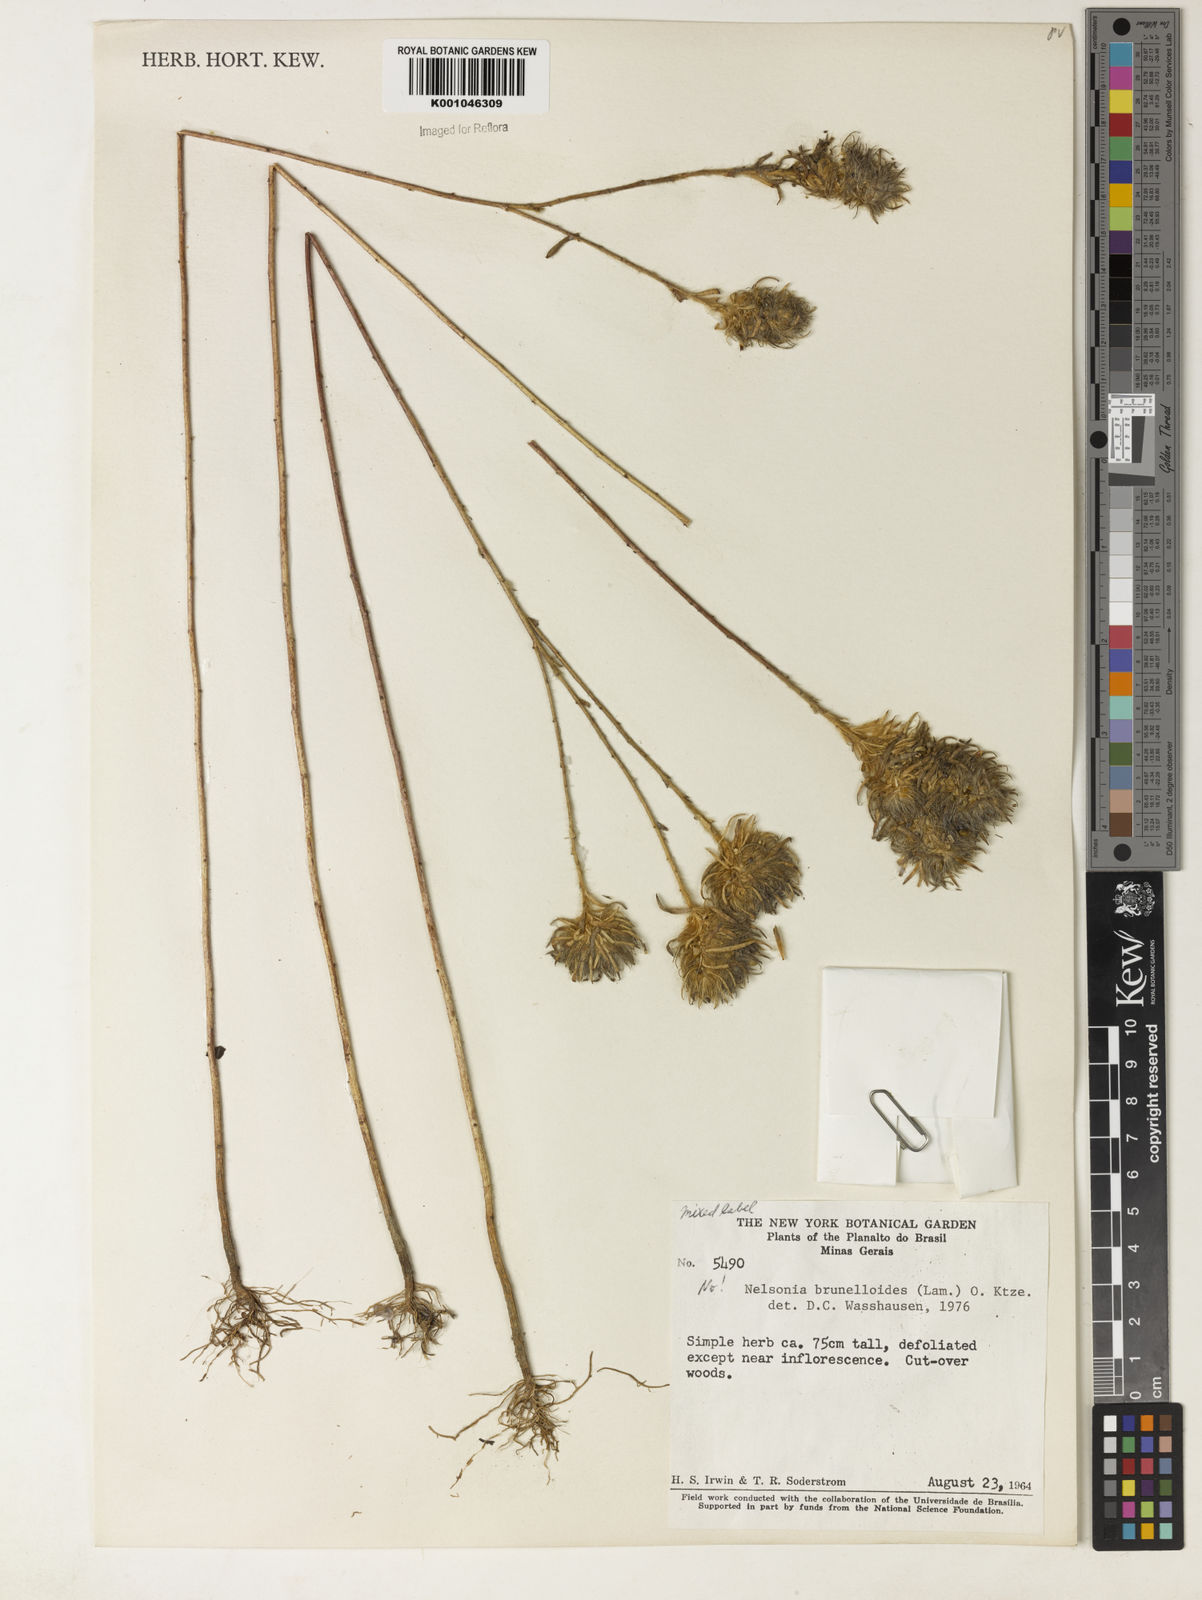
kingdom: Plantae
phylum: Tracheophyta
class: Magnoliopsida
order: Lamiales
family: Acanthaceae
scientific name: Acanthaceae
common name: Acanthaceae
